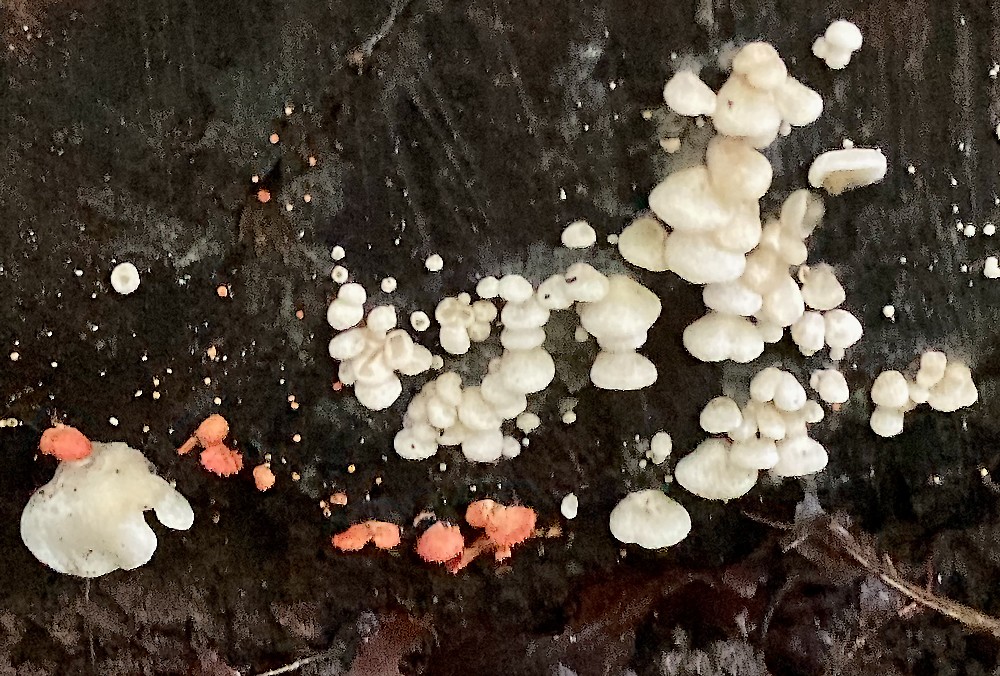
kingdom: Fungi
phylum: Basidiomycota
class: Agaricomycetes
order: Agaricales
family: Crepidotaceae
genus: Crepidotus
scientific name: Crepidotus mollis
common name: blød muslingesvamp
